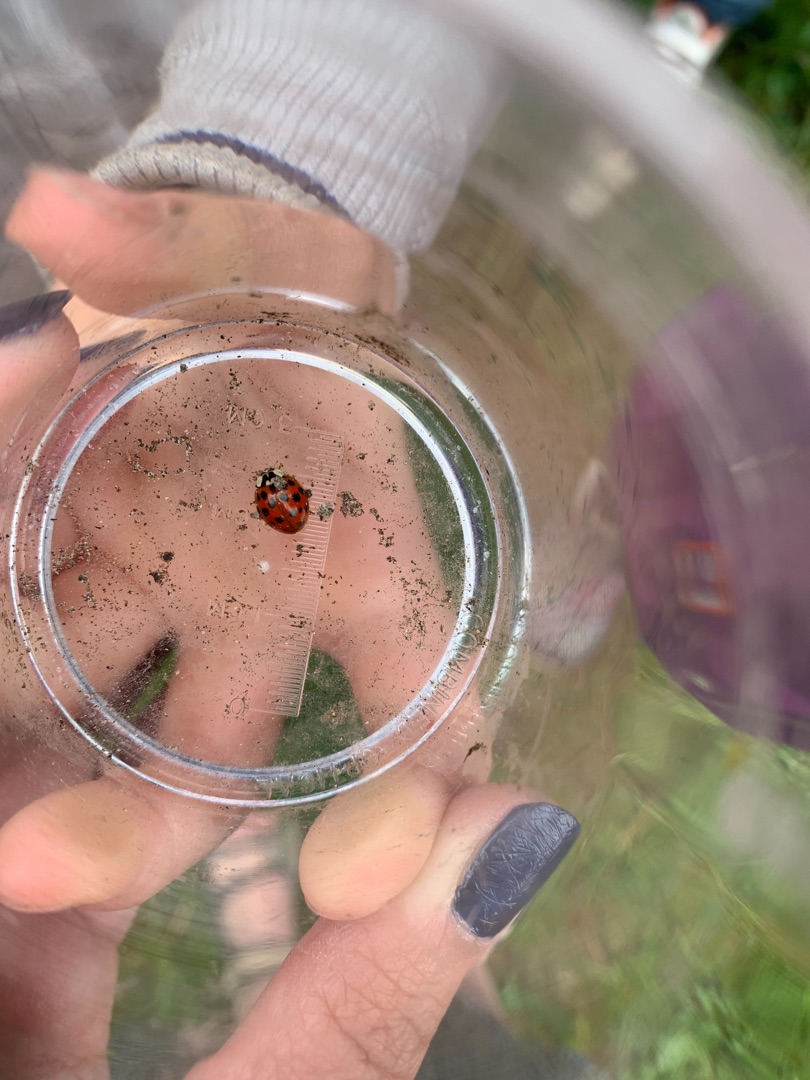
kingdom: Animalia
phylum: Arthropoda
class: Insecta
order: Coleoptera
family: Coccinellidae
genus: Harmonia
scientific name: Harmonia axyridis
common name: Harlekinmariehøne
